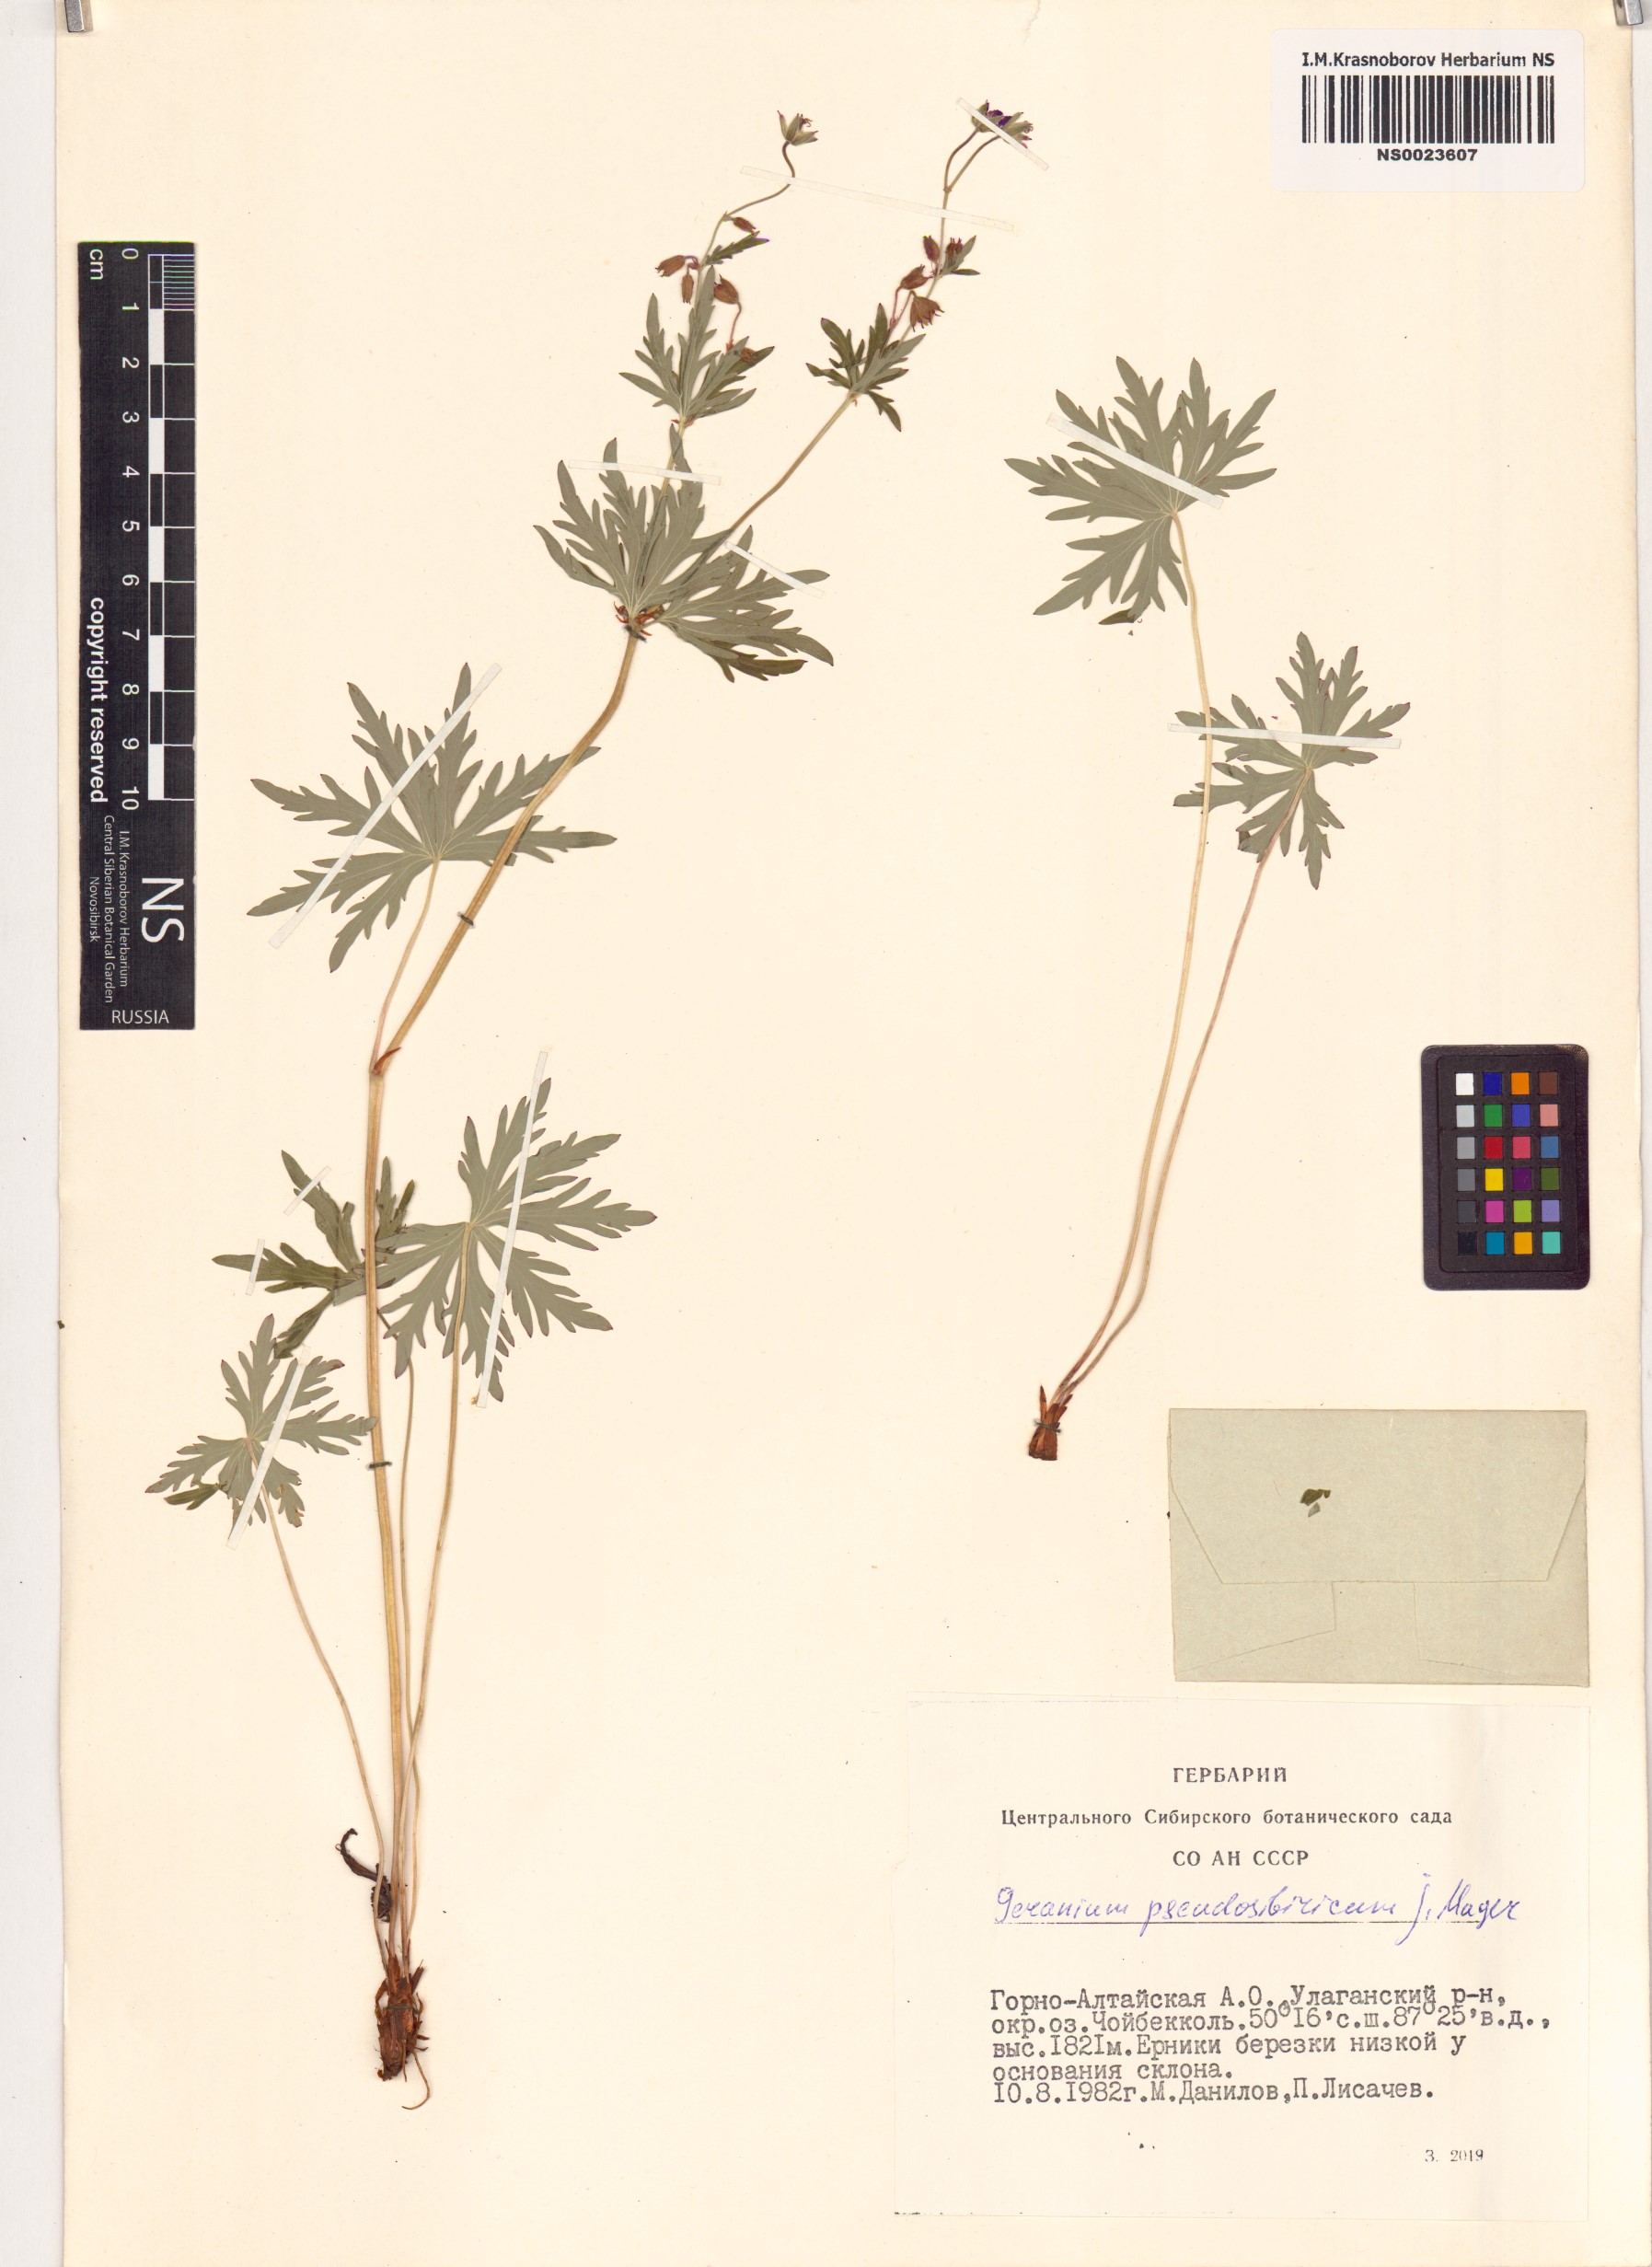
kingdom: Plantae
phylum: Tracheophyta
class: Magnoliopsida
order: Geraniales
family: Geraniaceae
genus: Geranium
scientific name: Geranium pseudosibiricum
